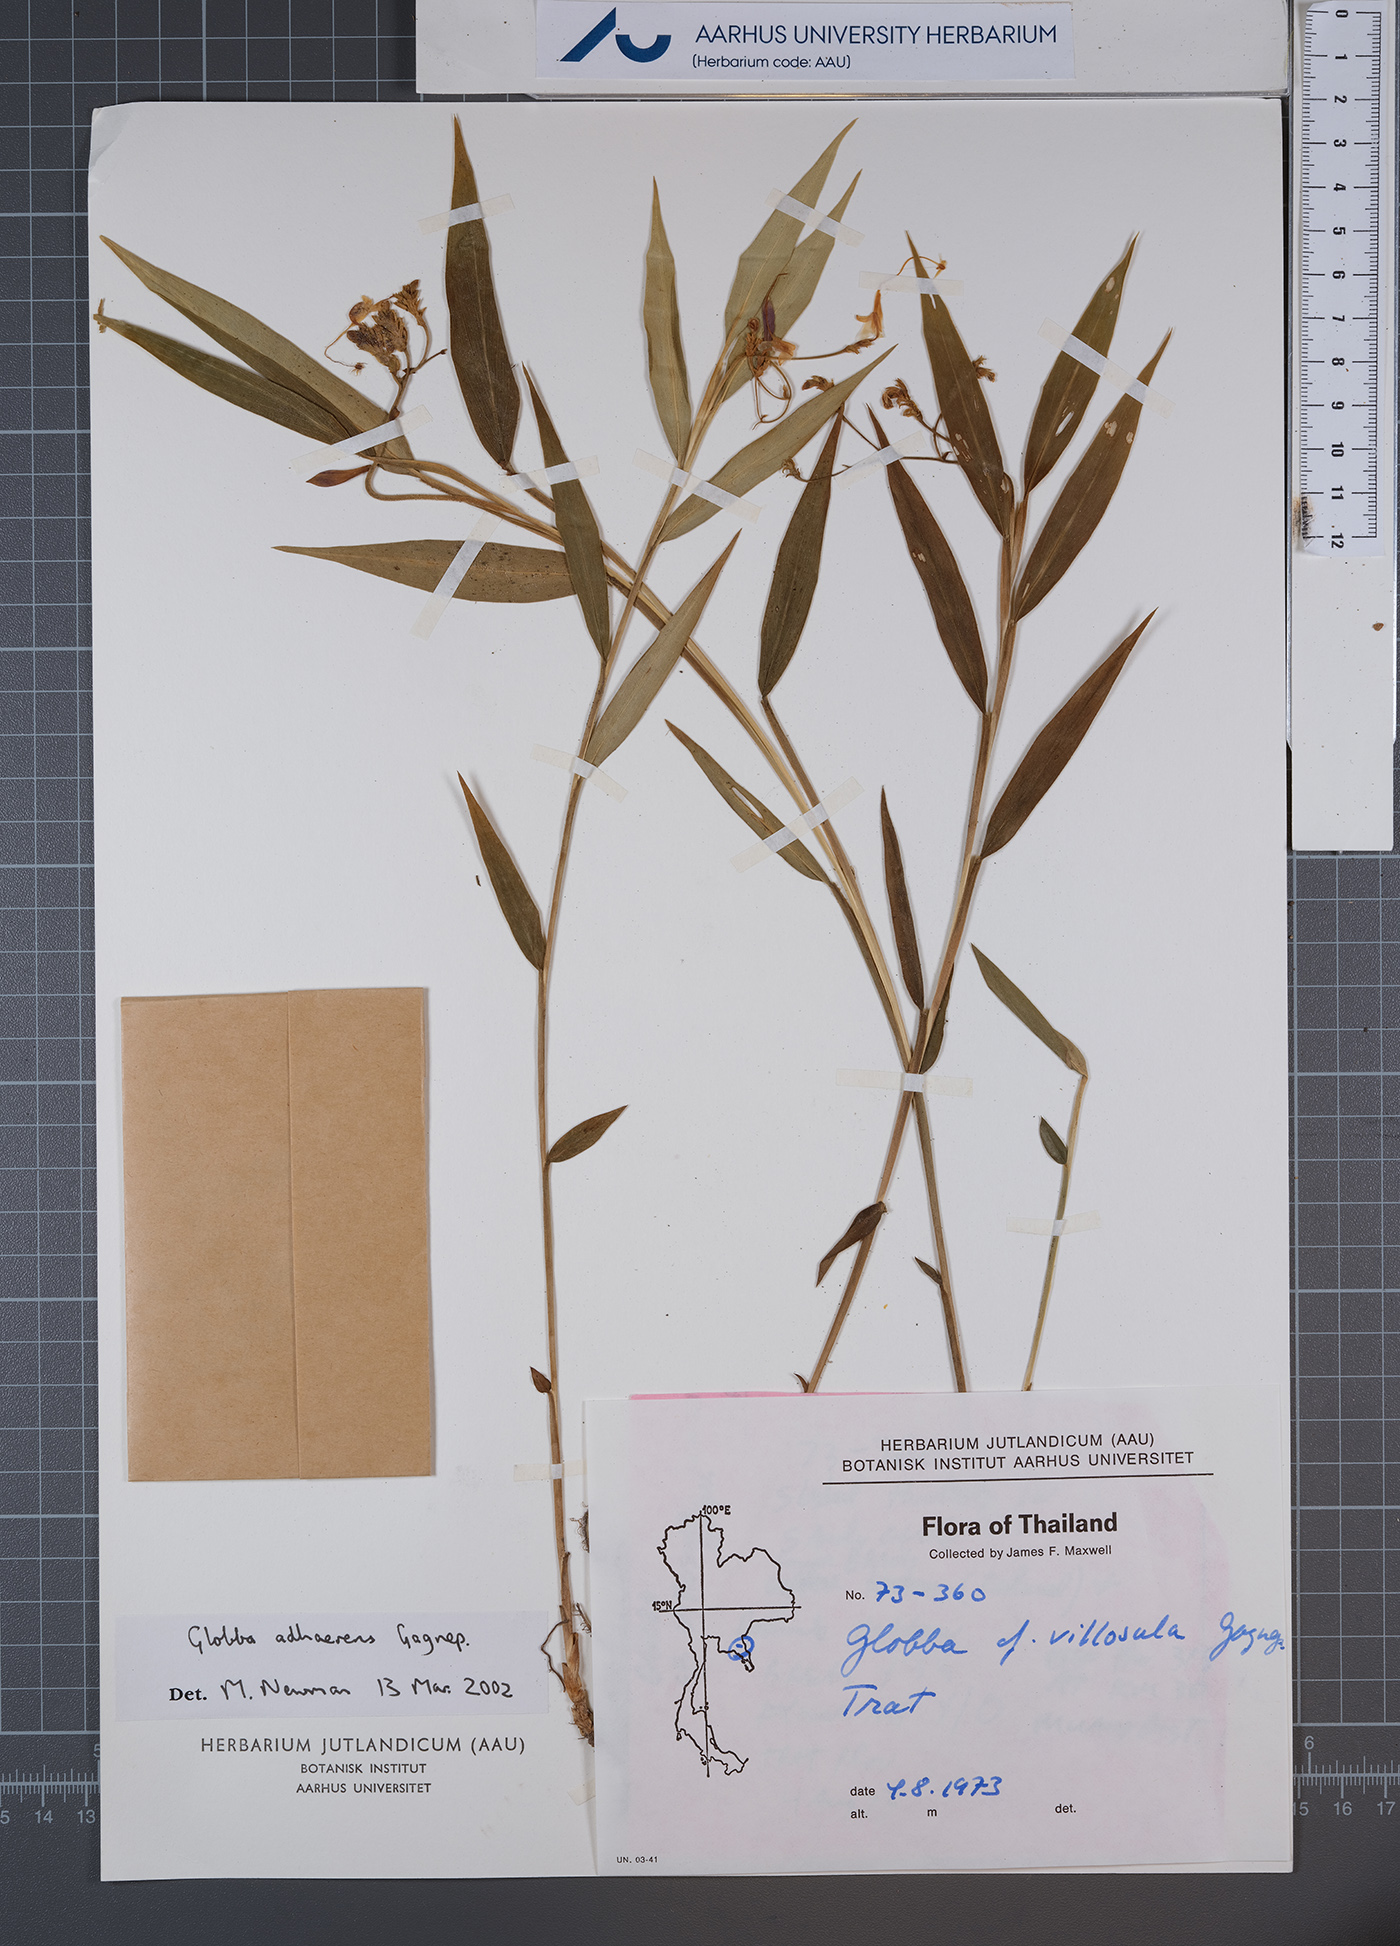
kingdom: Plantae
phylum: Tracheophyta
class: Liliopsida
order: Zingiberales
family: Zingiberaceae
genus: Globba
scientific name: Globba adhaerens
